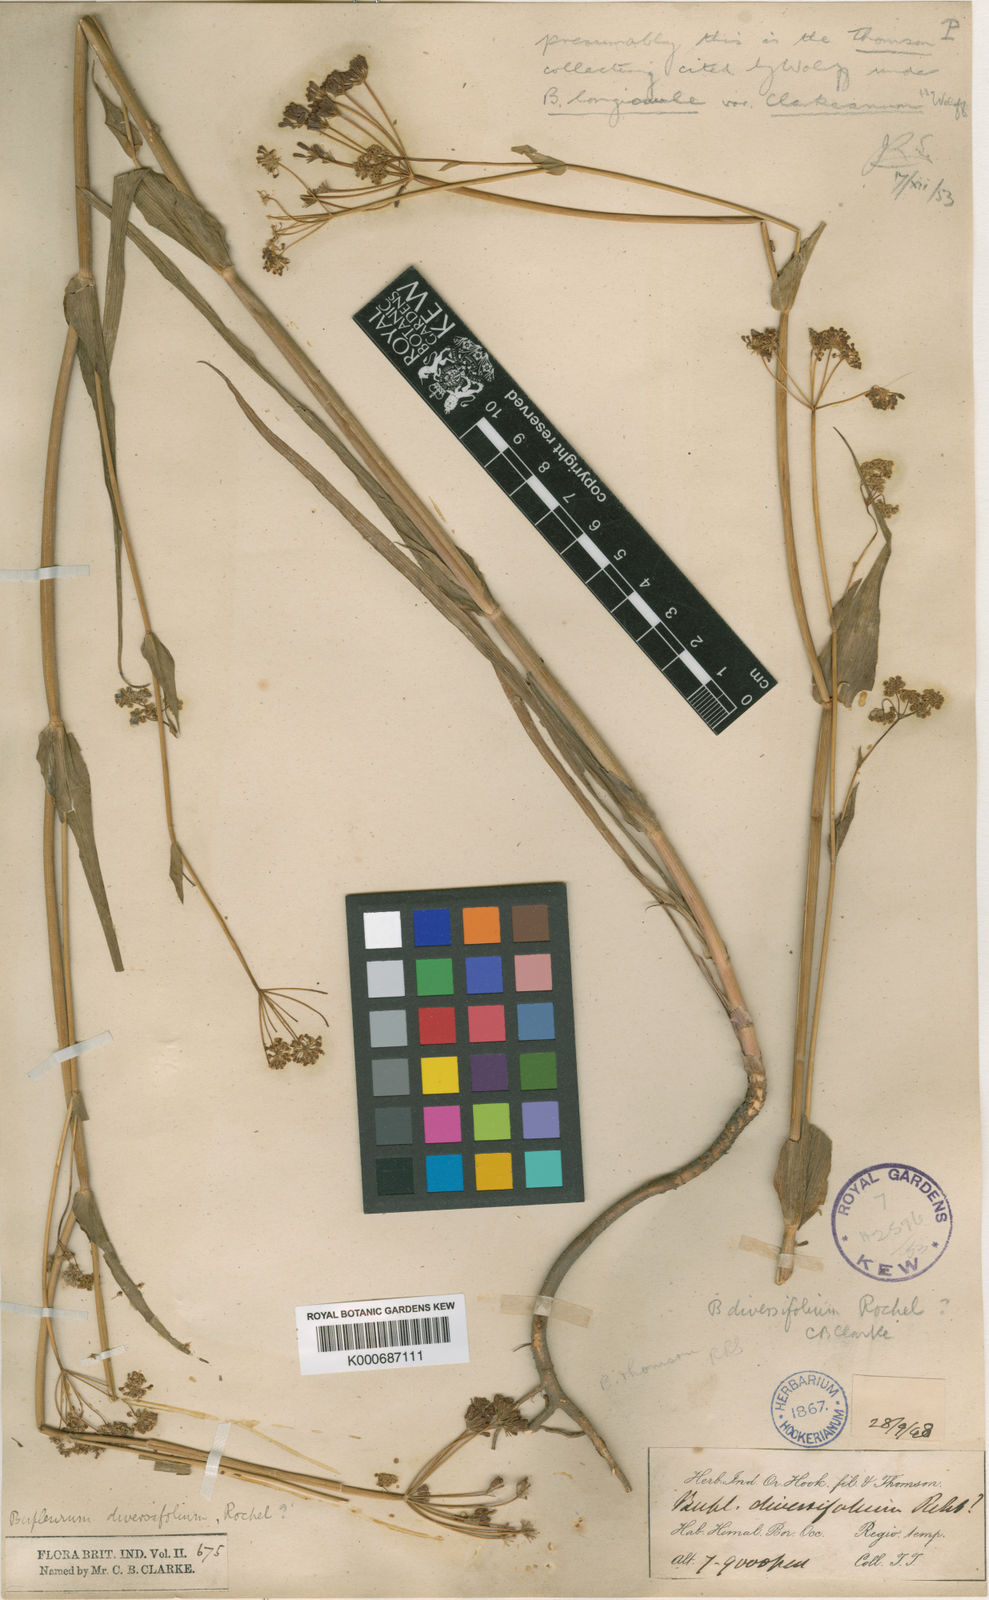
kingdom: Plantae
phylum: Tracheophyta
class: Magnoliopsida
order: Apiales
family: Apiaceae
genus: Bupleurum
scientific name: Bupleurum longicaule
